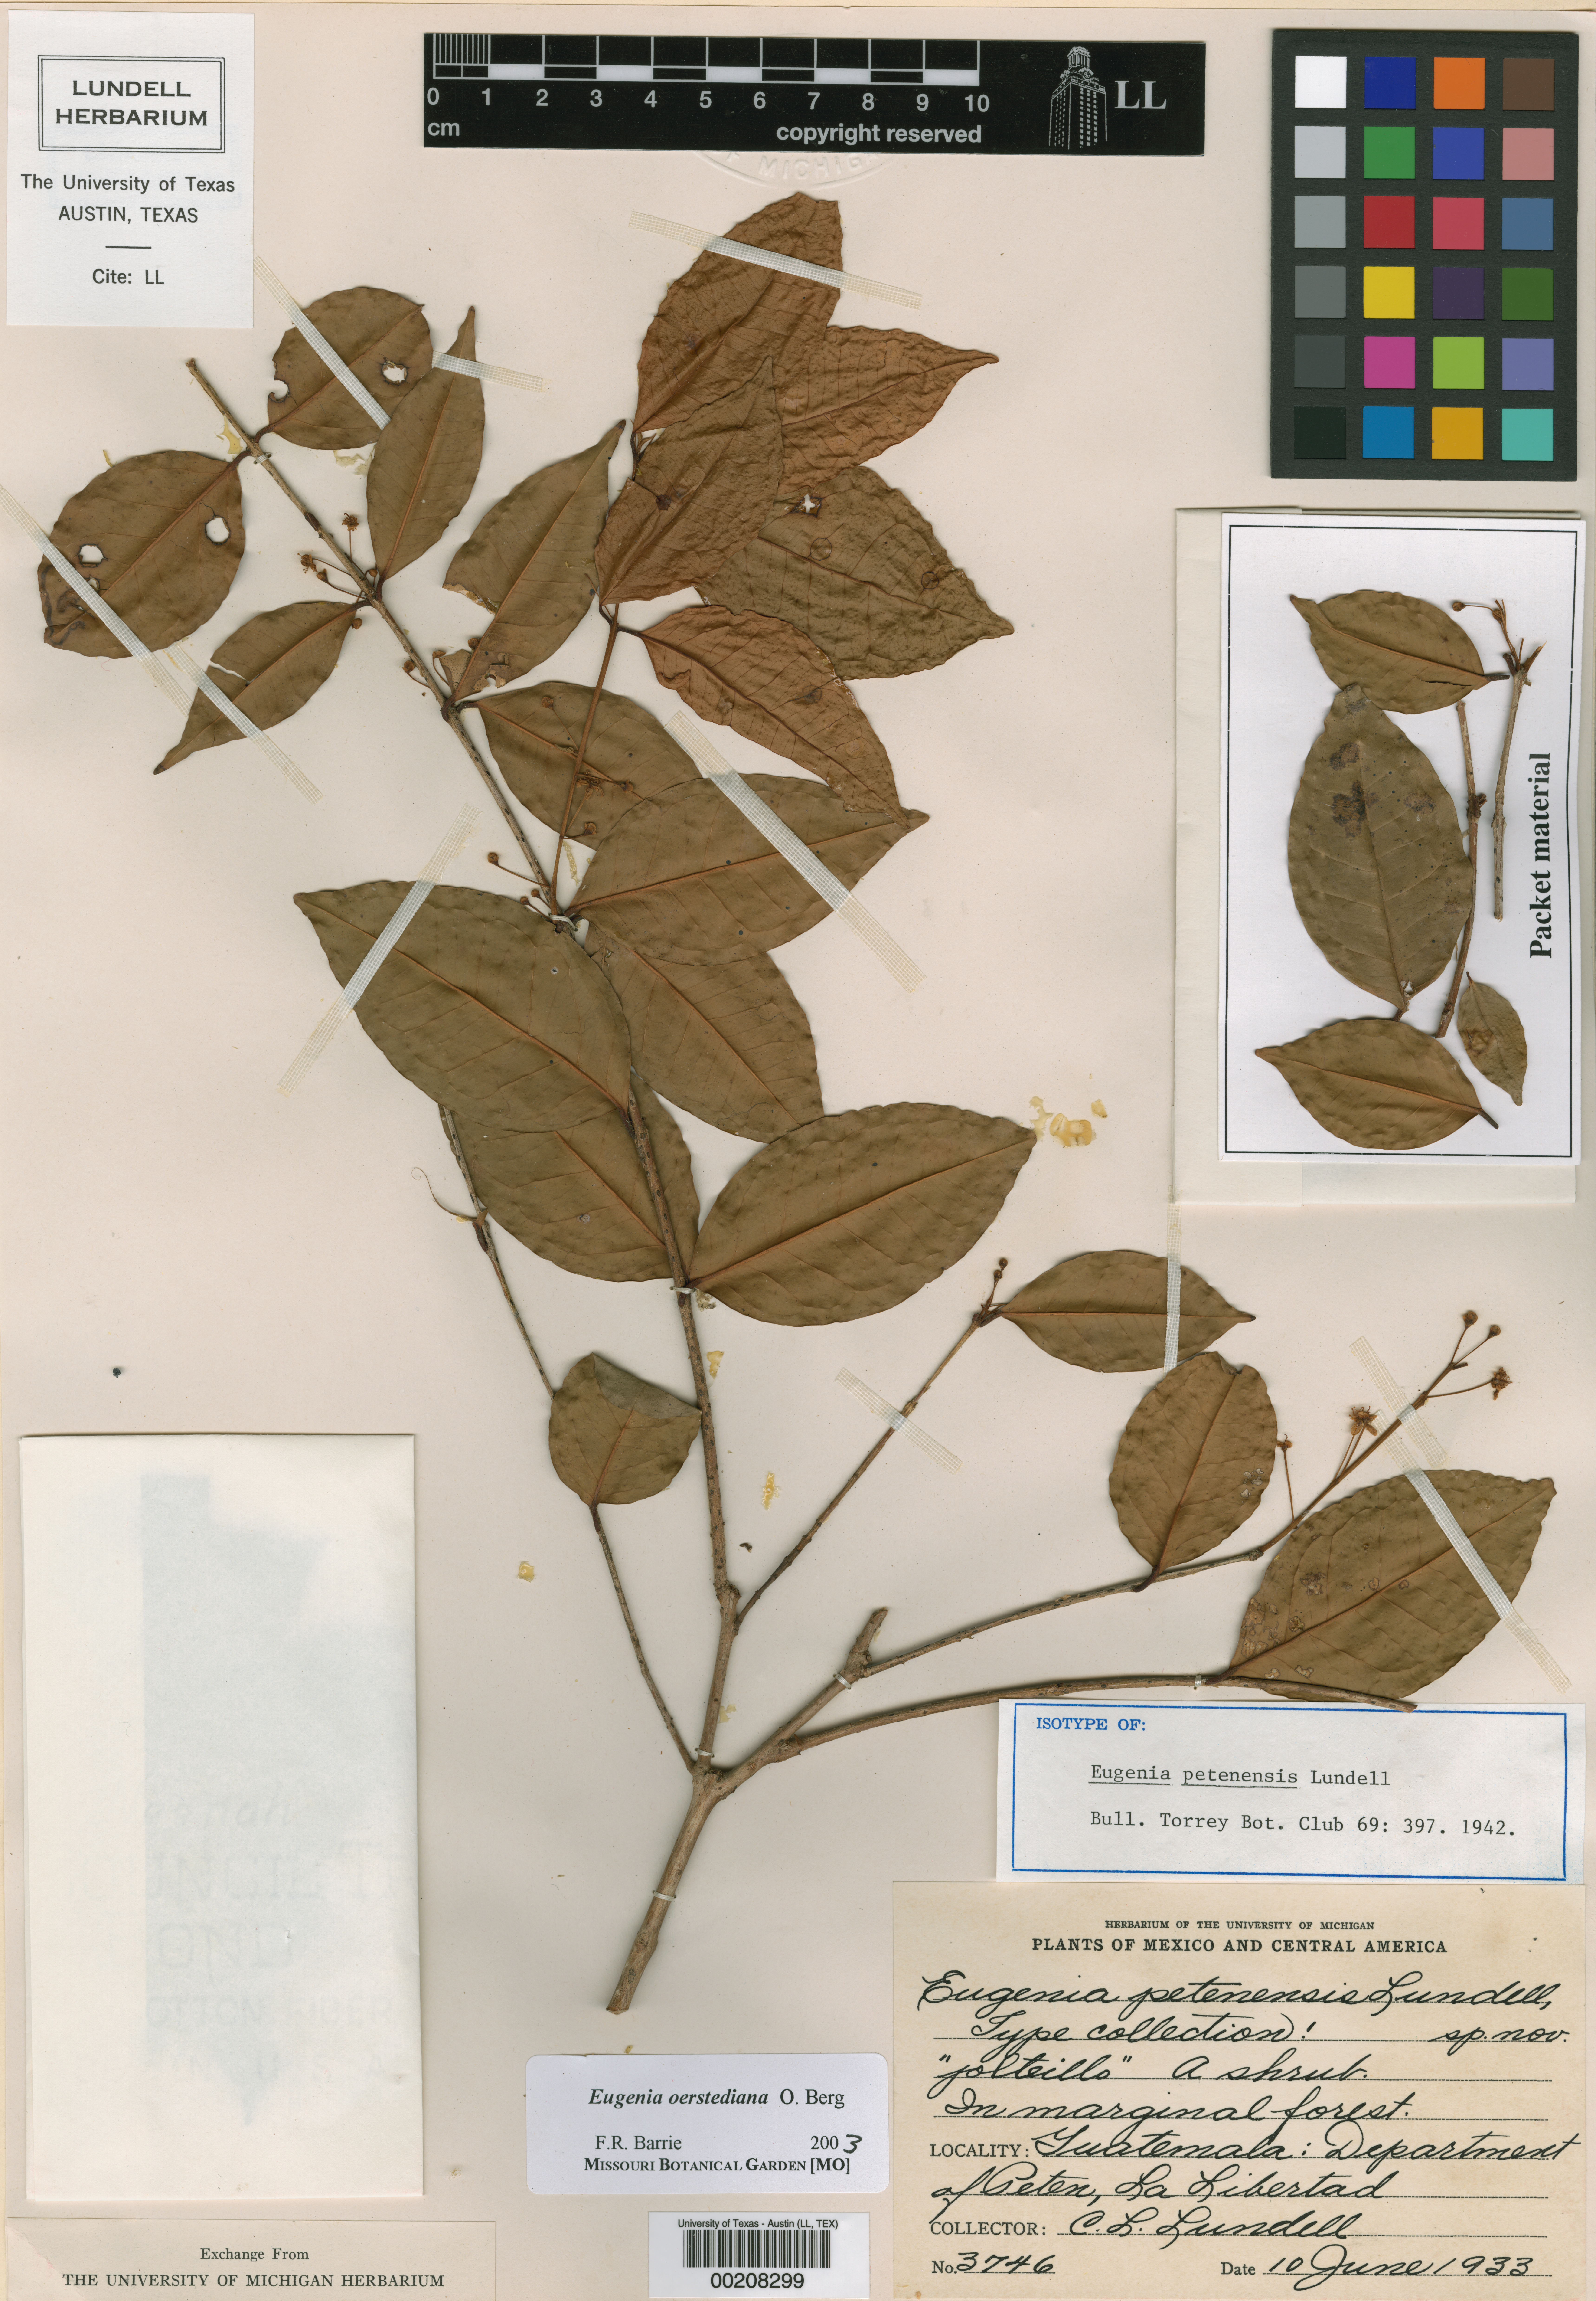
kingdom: Plantae
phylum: Tracheophyta
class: Magnoliopsida
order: Myrtales
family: Myrtaceae
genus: Eugenia
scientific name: Eugenia oerstediana
